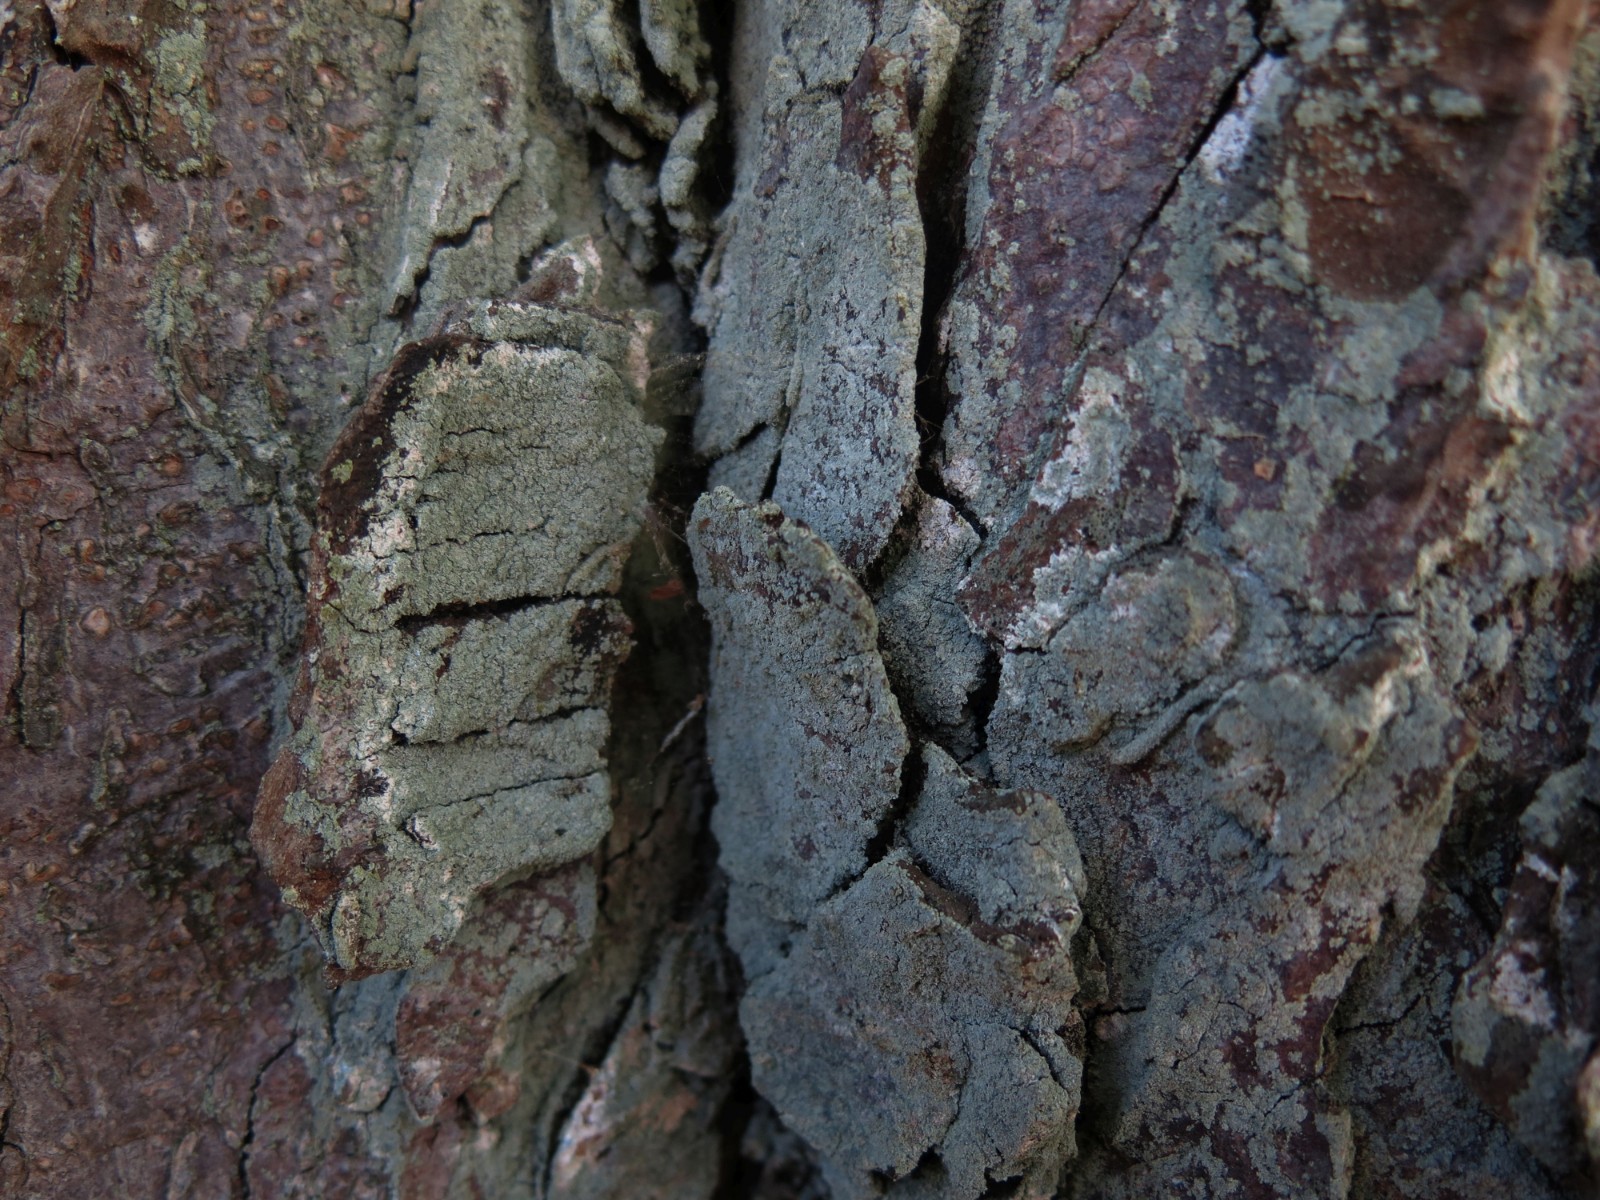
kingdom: Fungi
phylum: Ascomycota
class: Lecanoromycetes
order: Lecanorales
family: Stereocaulaceae
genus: Lepraria
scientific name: Lepraria incana
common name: almindelig støvlav
